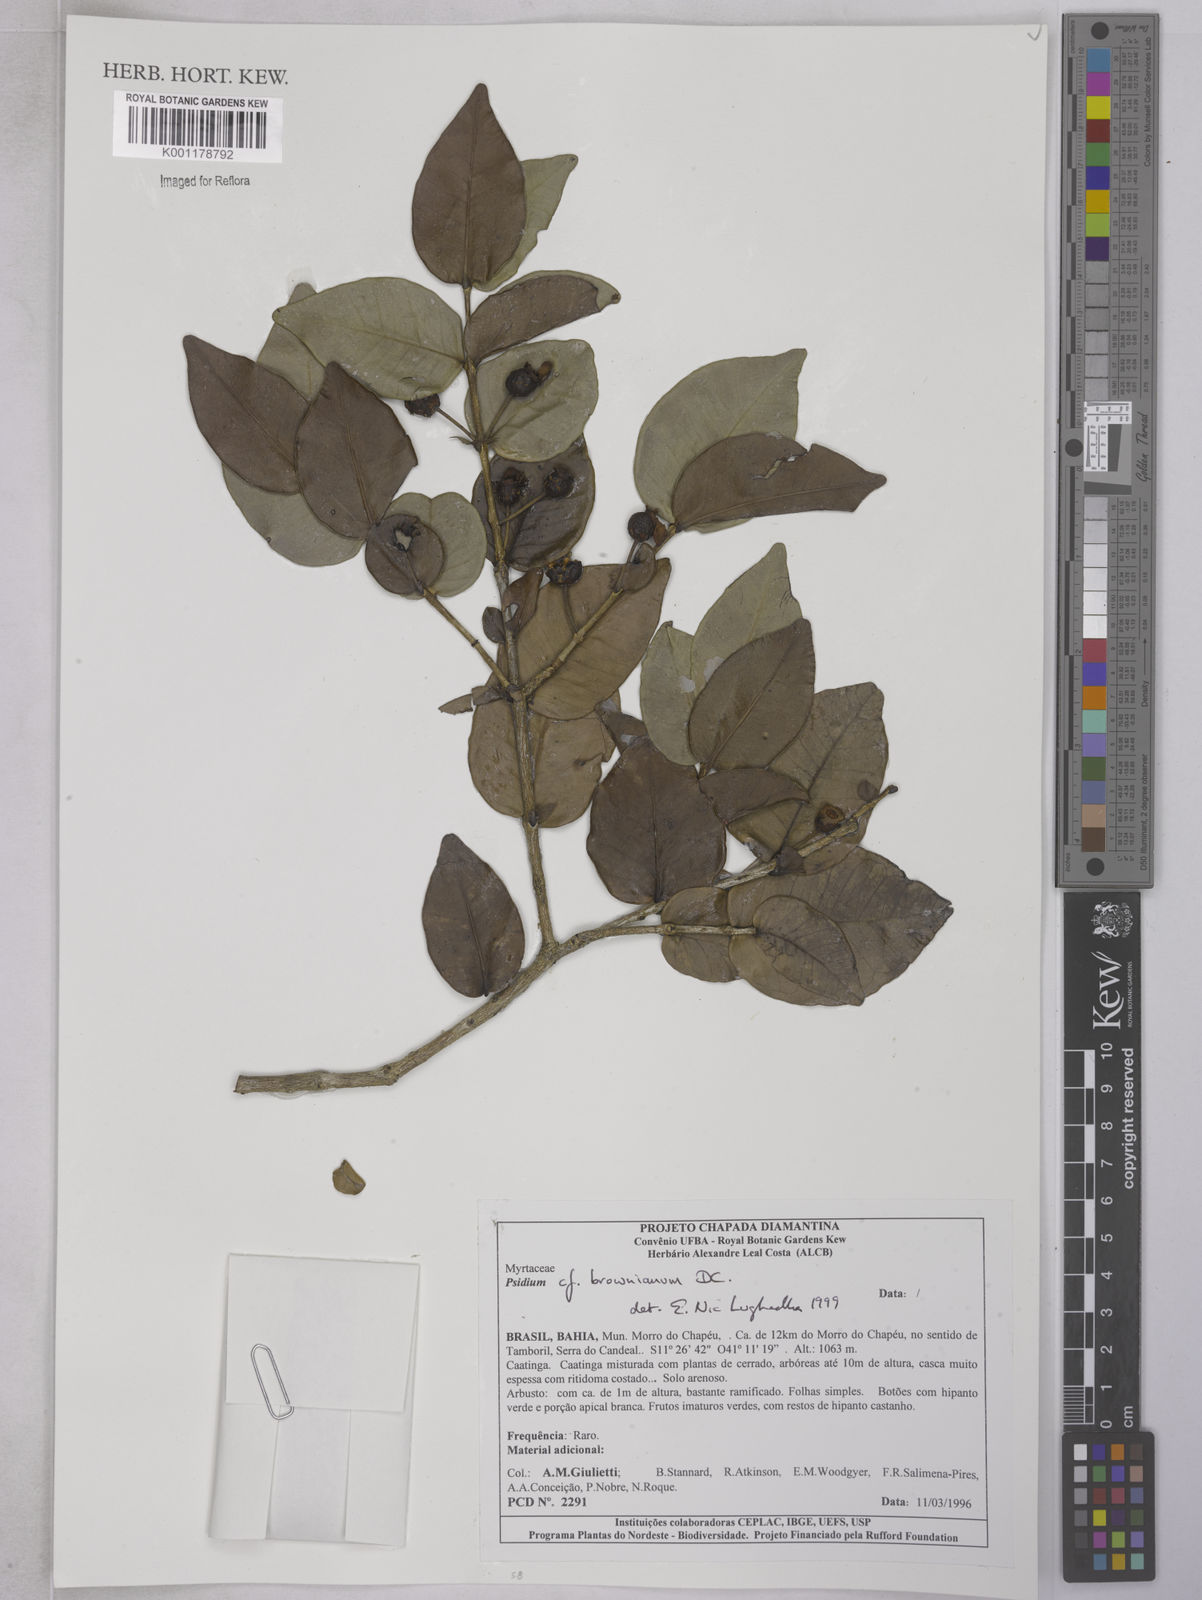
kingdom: Plantae
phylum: Tracheophyta
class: Liliopsida
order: Alismatales
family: Araceae
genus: Philodendron
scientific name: Philodendron pedatum
